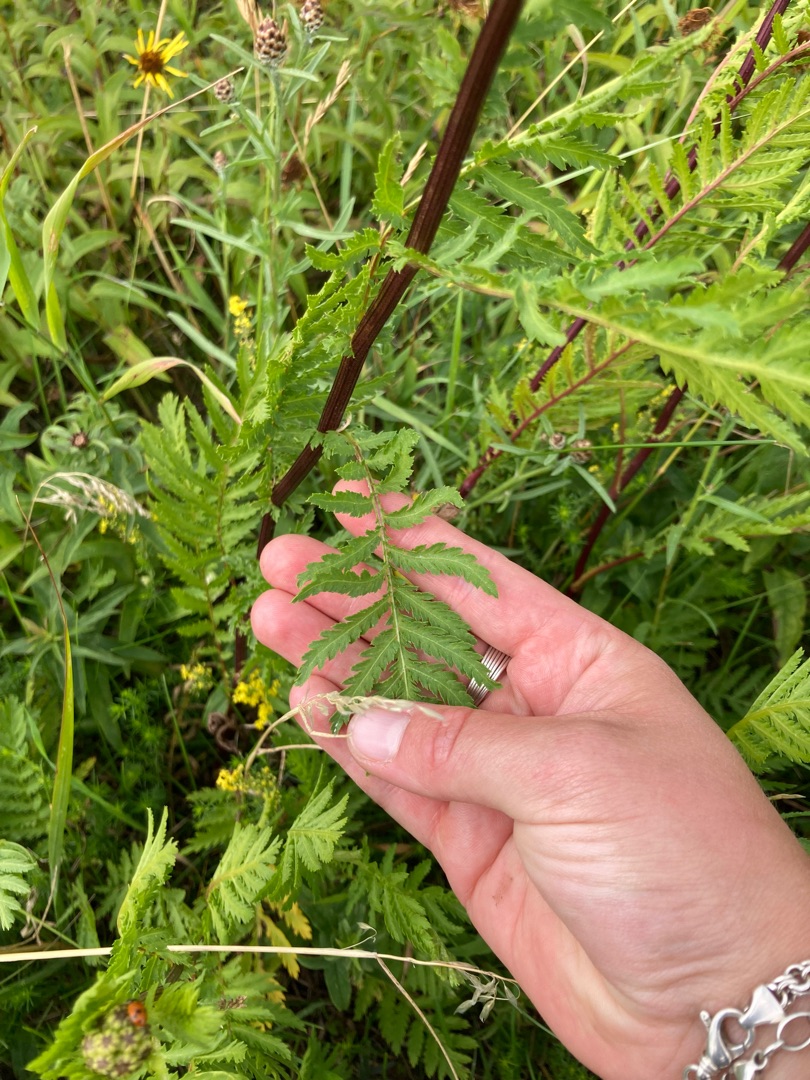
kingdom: Plantae
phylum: Tracheophyta
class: Magnoliopsida
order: Asterales
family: Asteraceae
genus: Tanacetum
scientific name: Tanacetum vulgare
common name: Rejnfan
